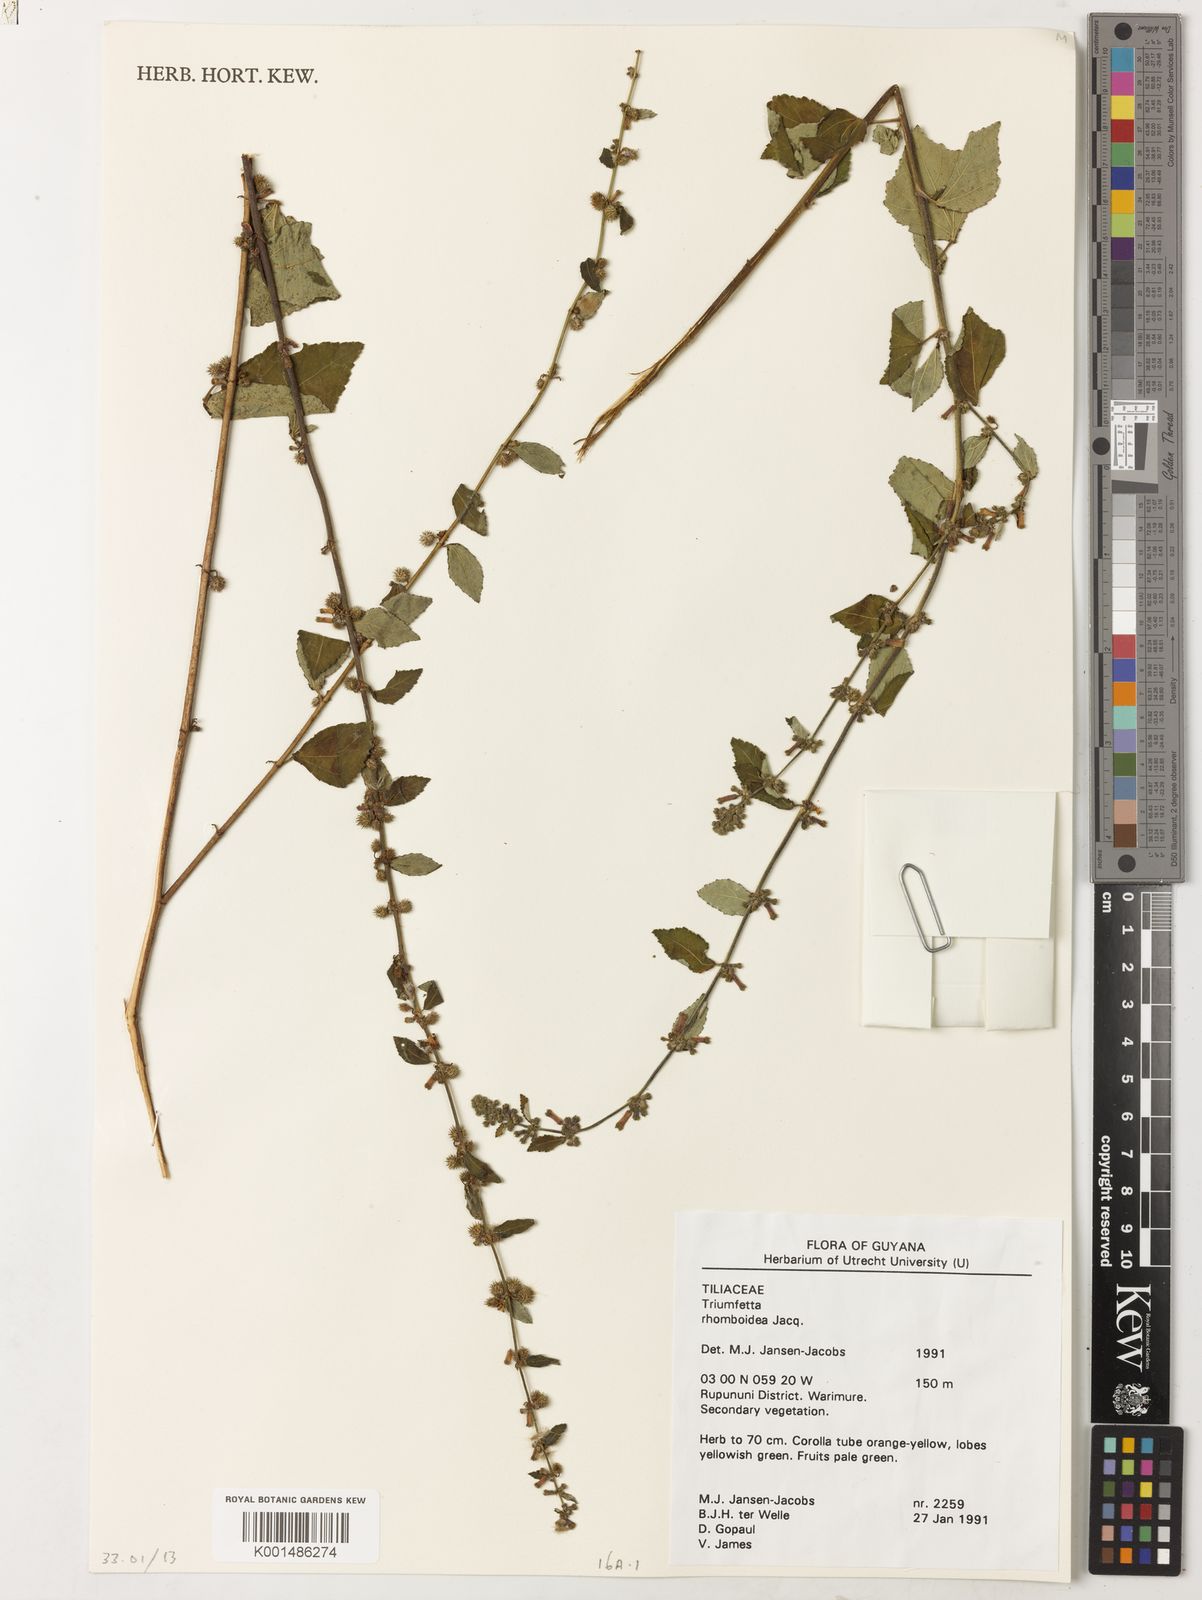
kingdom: Plantae
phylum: Tracheophyta
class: Magnoliopsida
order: Malvales
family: Malvaceae
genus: Triumfetta
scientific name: Triumfetta rhomboidea
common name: Diamond burbark
